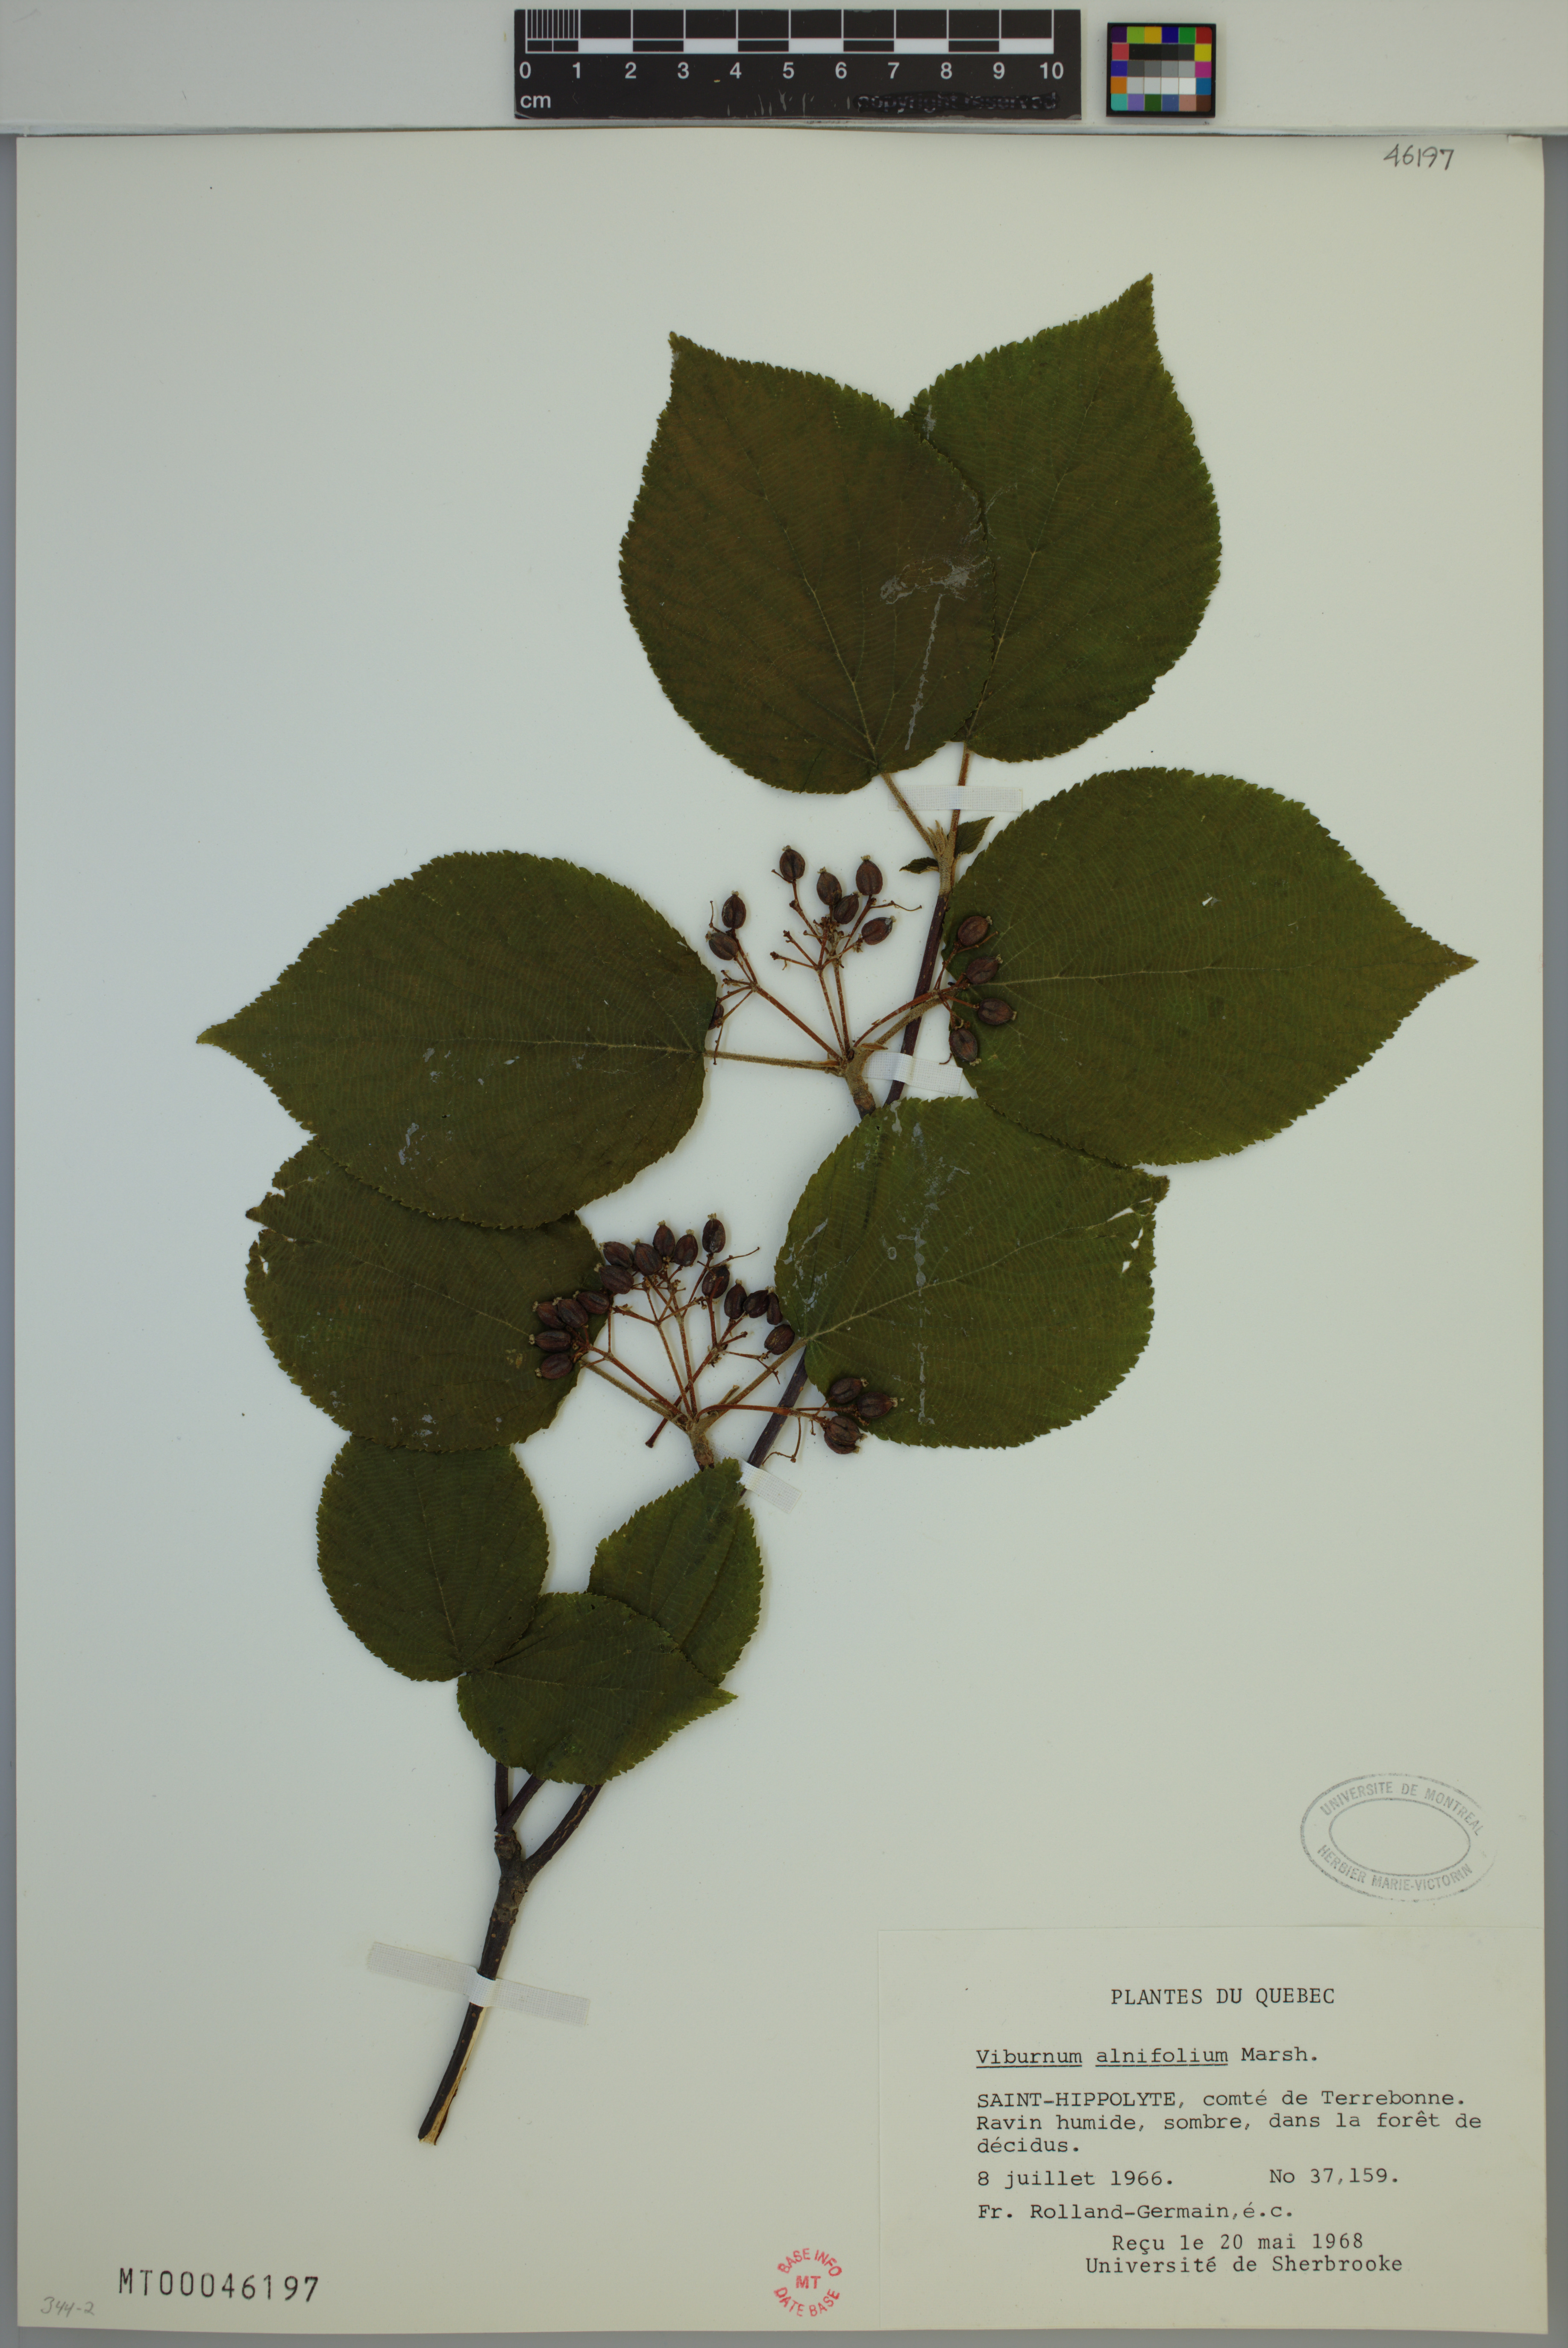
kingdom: Plantae
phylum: Tracheophyta
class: Magnoliopsida
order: Dipsacales
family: Viburnaceae
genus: Viburnum
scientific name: Viburnum lantanoides
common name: Hobblebush
